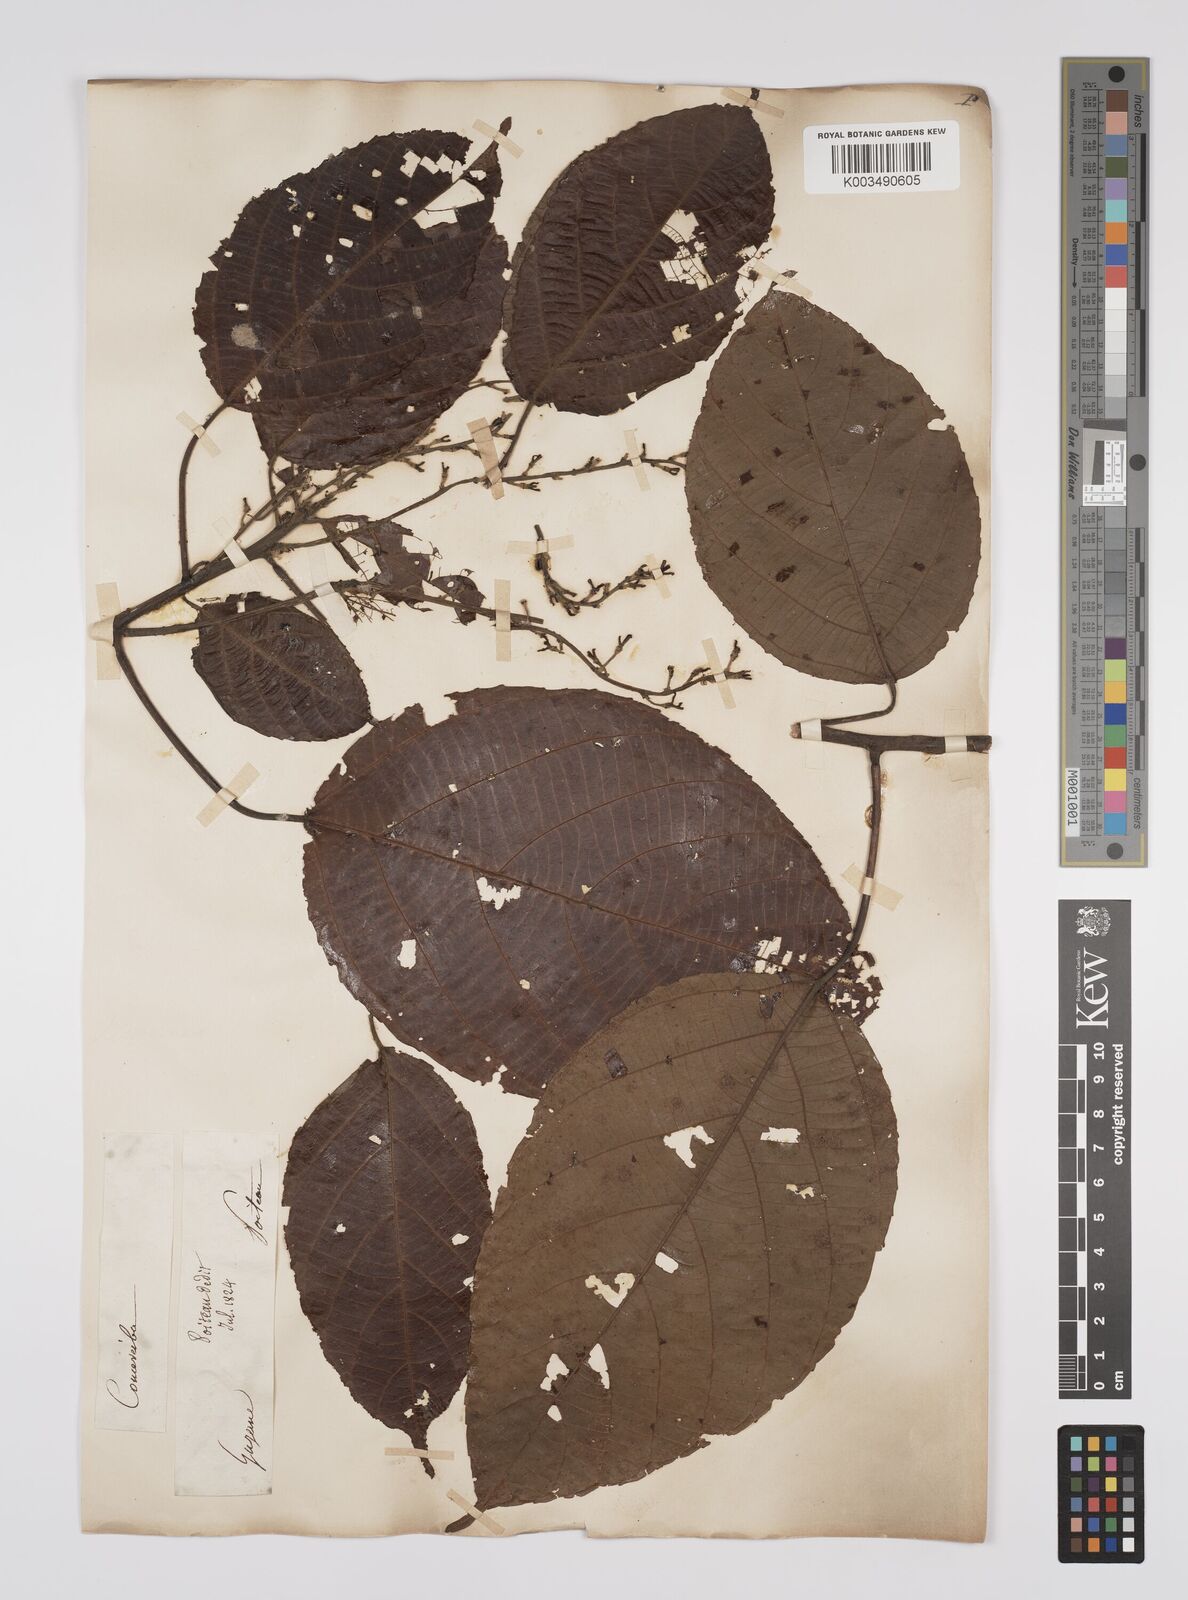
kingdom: Plantae
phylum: Tracheophyta
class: Magnoliopsida
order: Malpighiales
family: Euphorbiaceae
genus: Aparisthmium
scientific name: Aparisthmium cordatum
